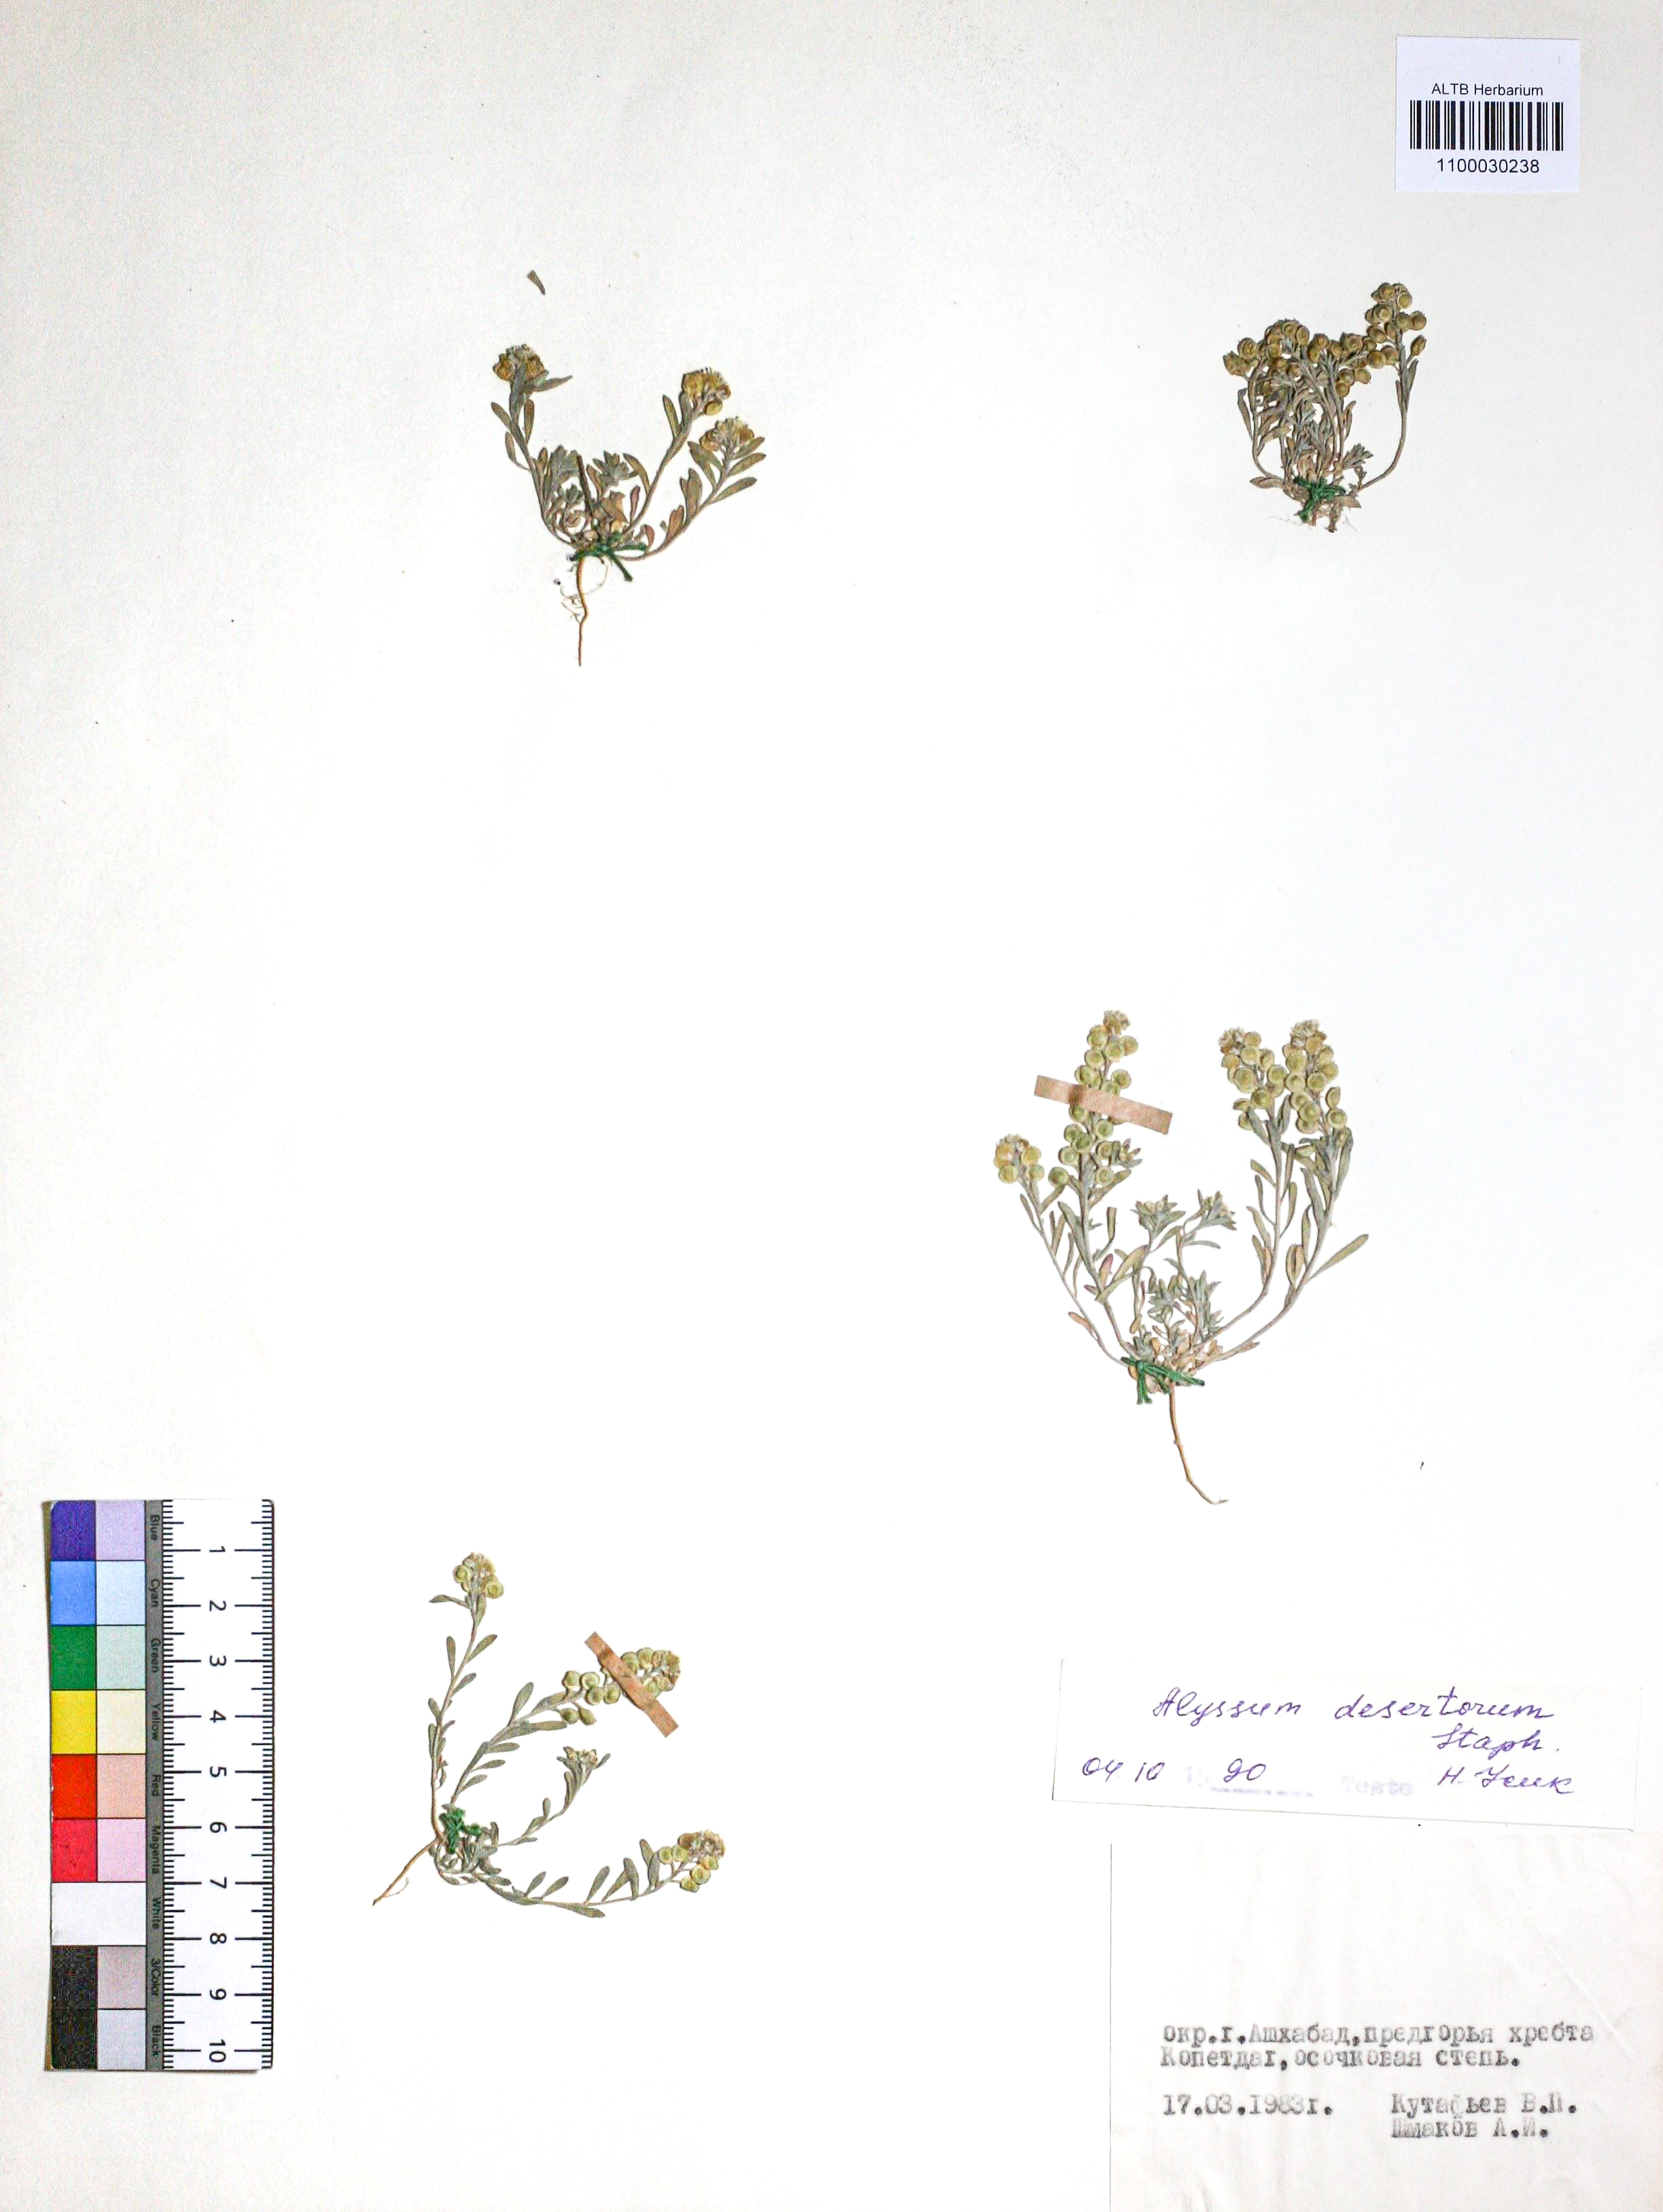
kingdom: Plantae
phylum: Tracheophyta
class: Magnoliopsida
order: Brassicales
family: Brassicaceae
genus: Alyssum
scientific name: Alyssum turkestanicum
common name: Desert alyssum
